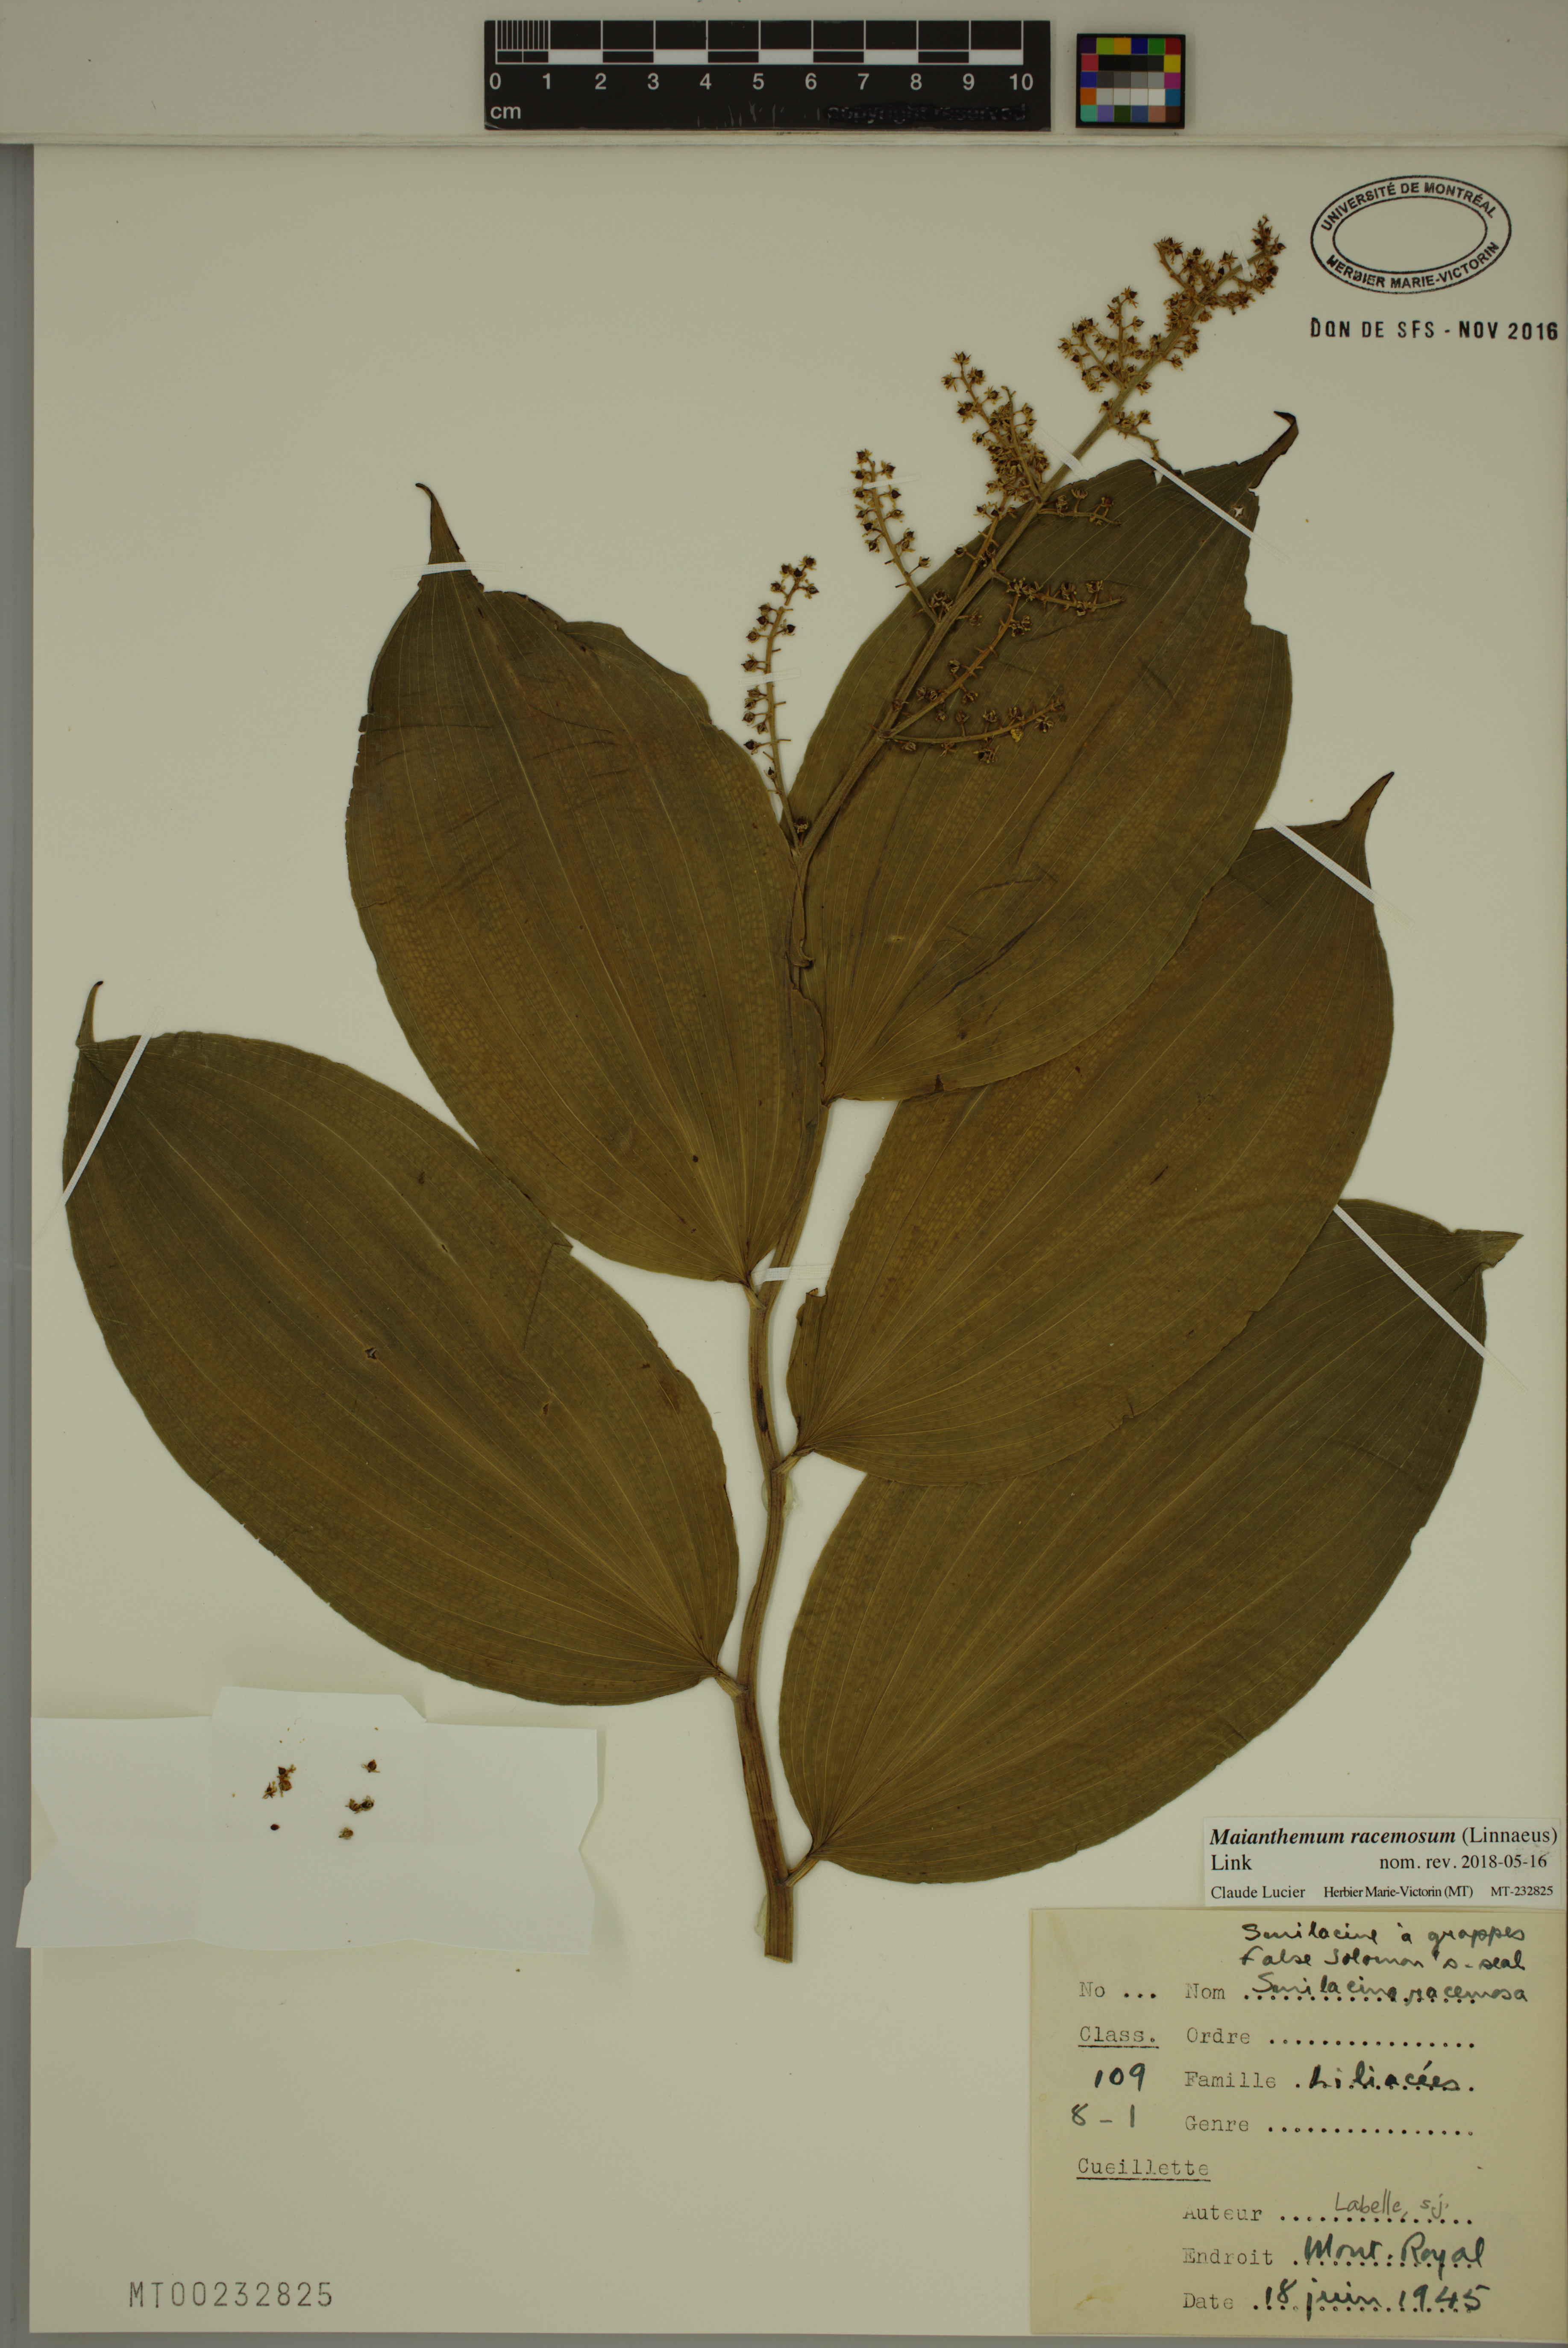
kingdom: Plantae
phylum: Tracheophyta
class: Liliopsida
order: Asparagales
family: Asparagaceae
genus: Maianthemum
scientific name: Maianthemum racemosum
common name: False spikenard
